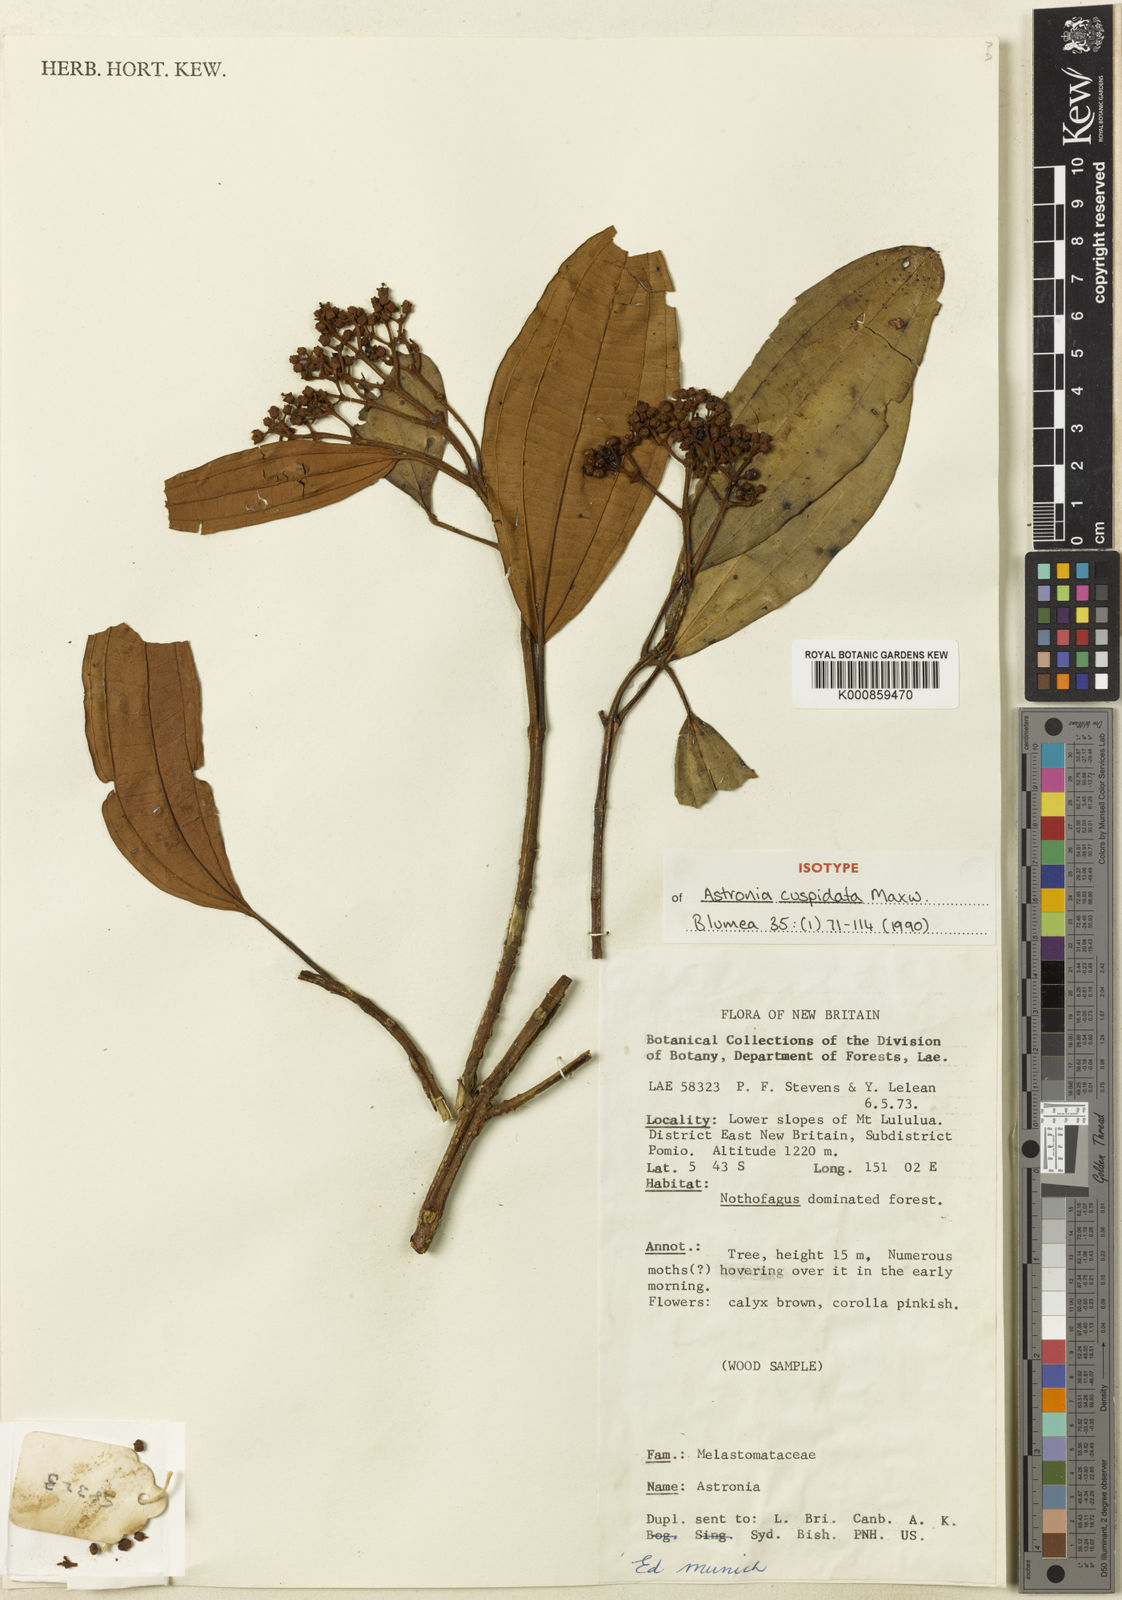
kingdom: Plantae
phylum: Tracheophyta
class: Magnoliopsida
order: Myrtales
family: Melastomataceae
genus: Astronia
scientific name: Astronia cuspidata
